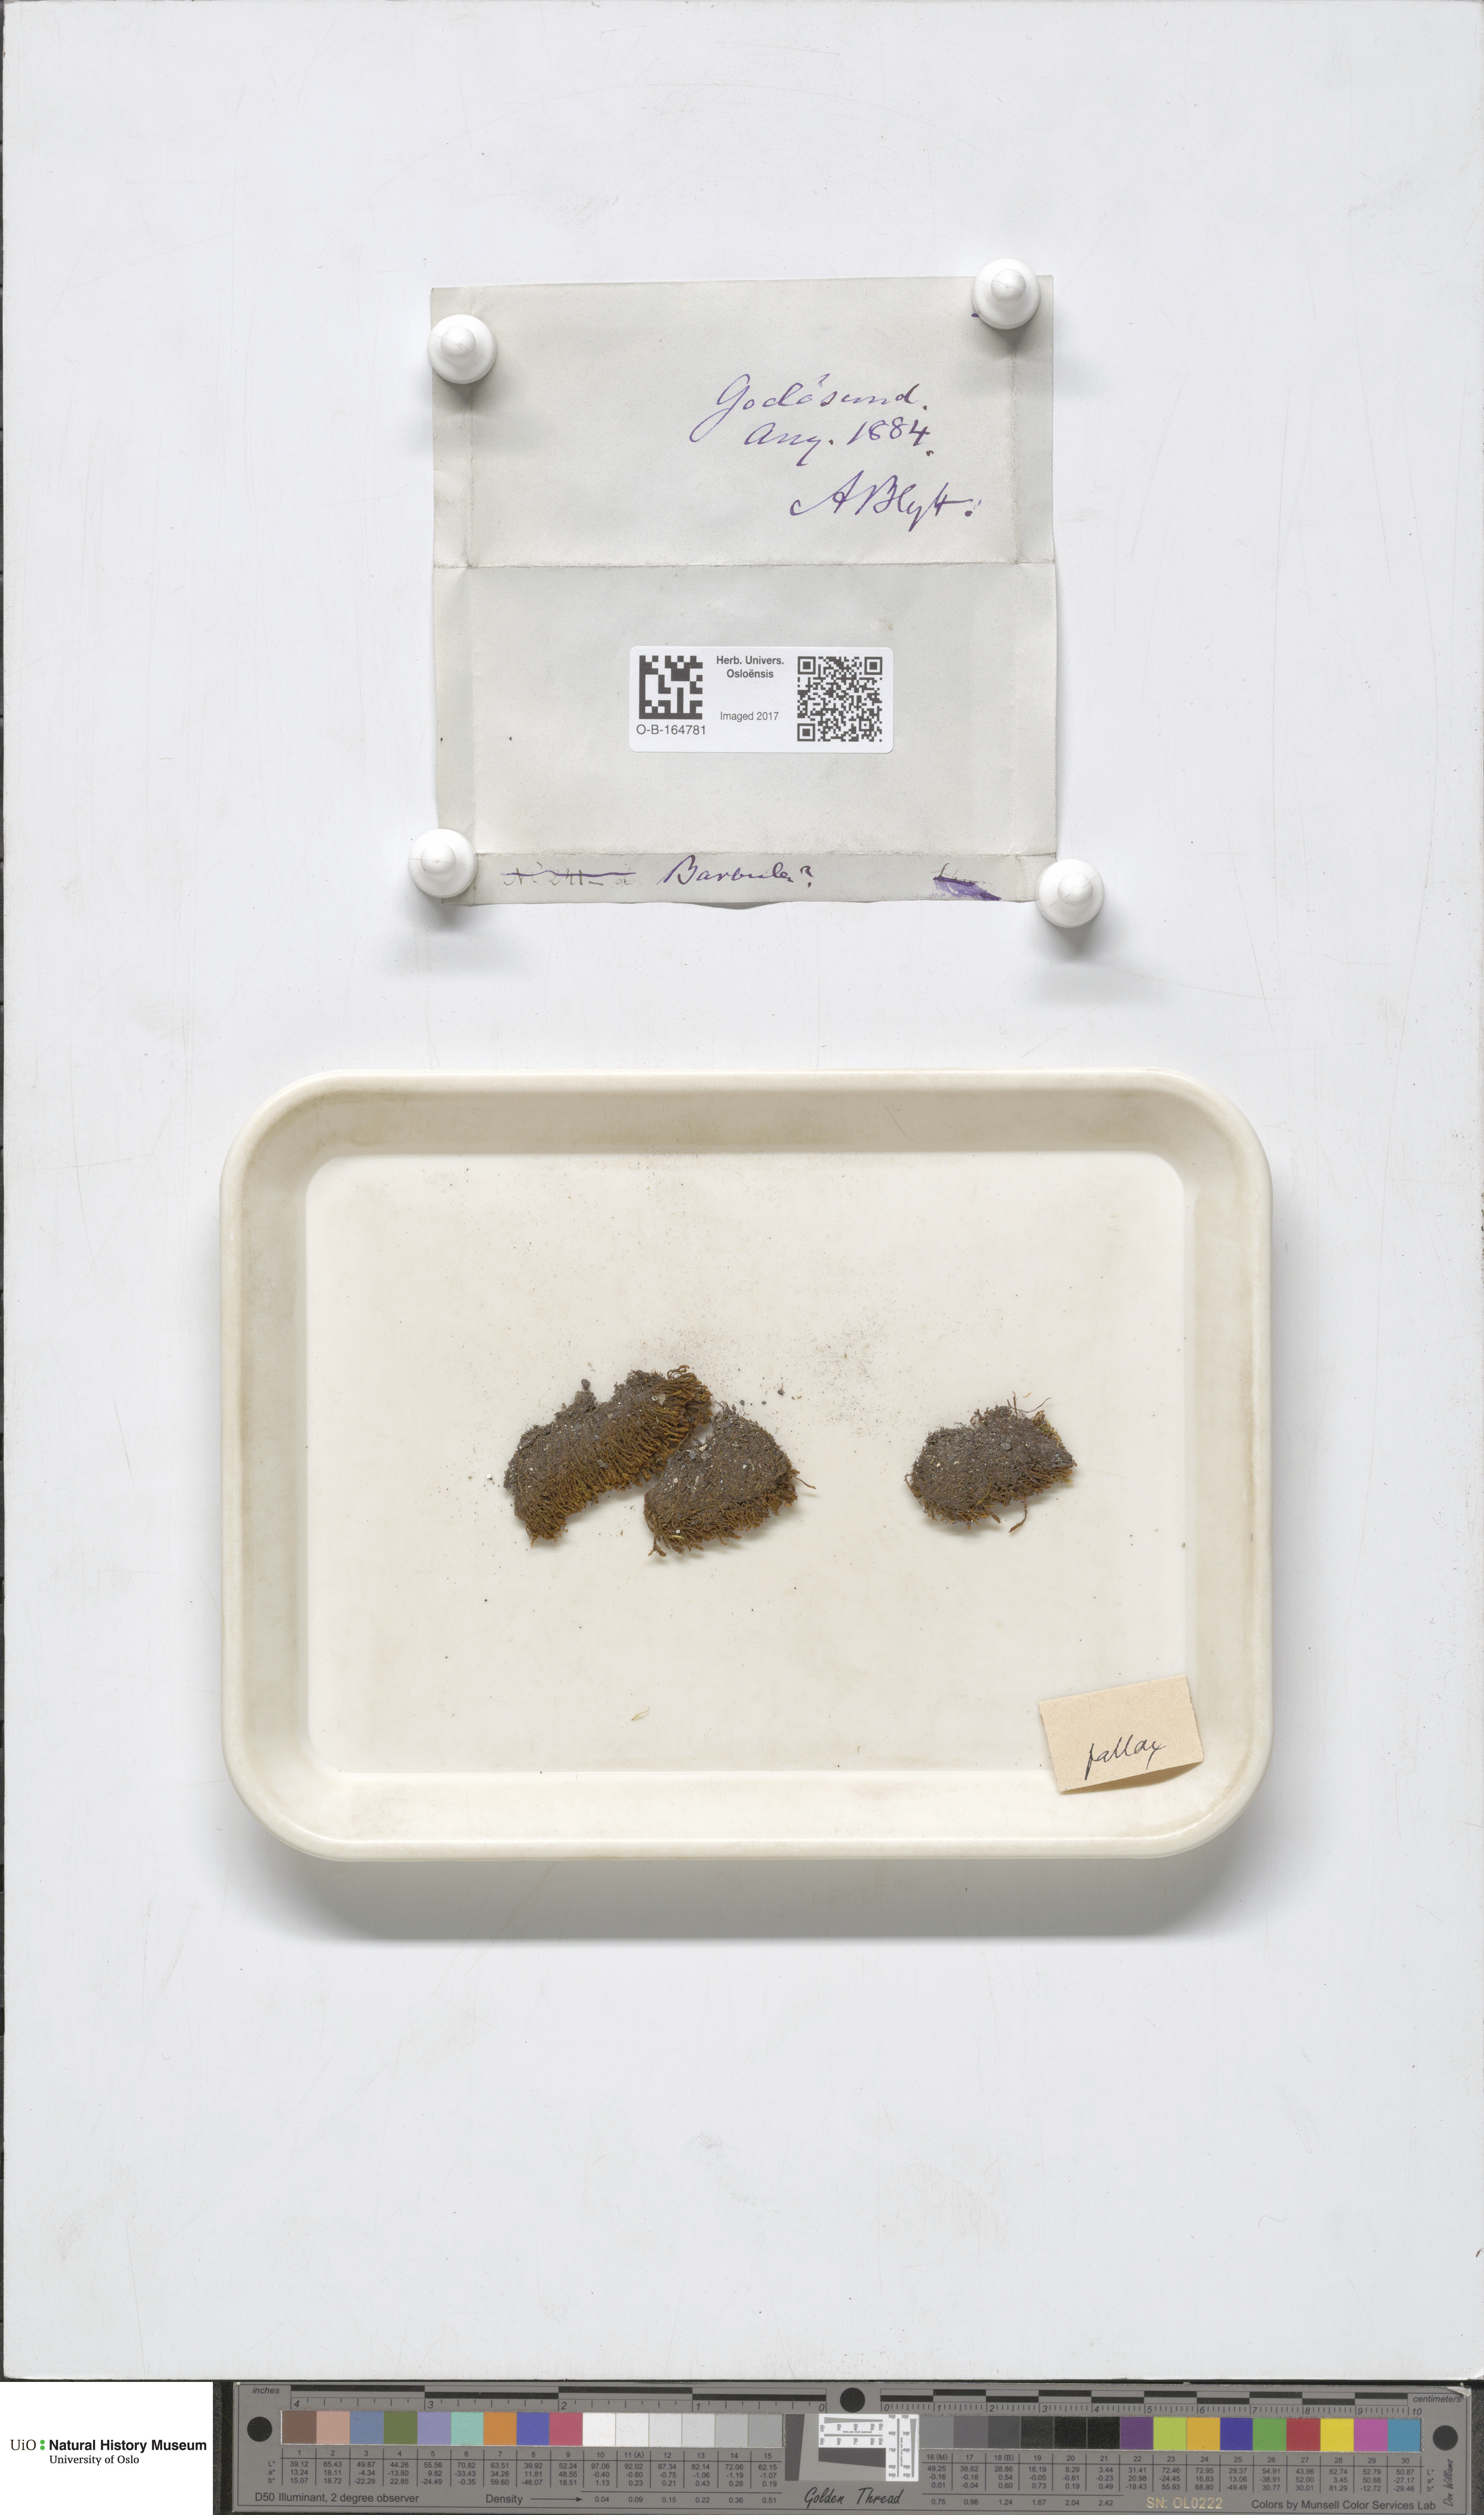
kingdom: Plantae
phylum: Bryophyta
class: Bryopsida
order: Pottiales
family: Pottiaceae
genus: Geheebia
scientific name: Geheebia fallax
